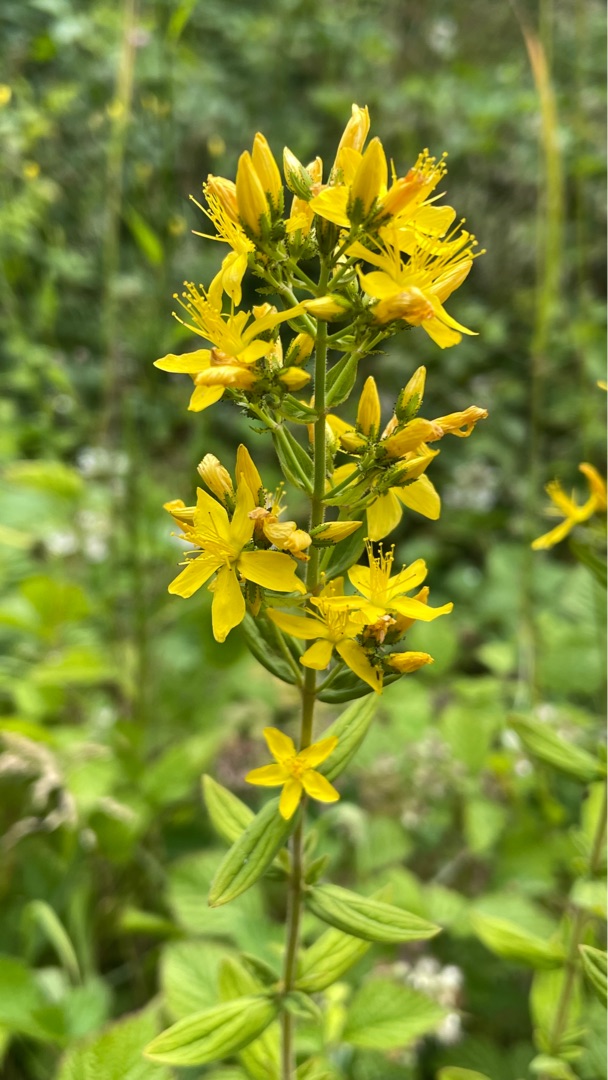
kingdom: Plantae
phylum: Tracheophyta
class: Magnoliopsida
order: Malpighiales
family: Hypericaceae
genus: Hypericum
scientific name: Hypericum hirsutum
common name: Lådden perikon
